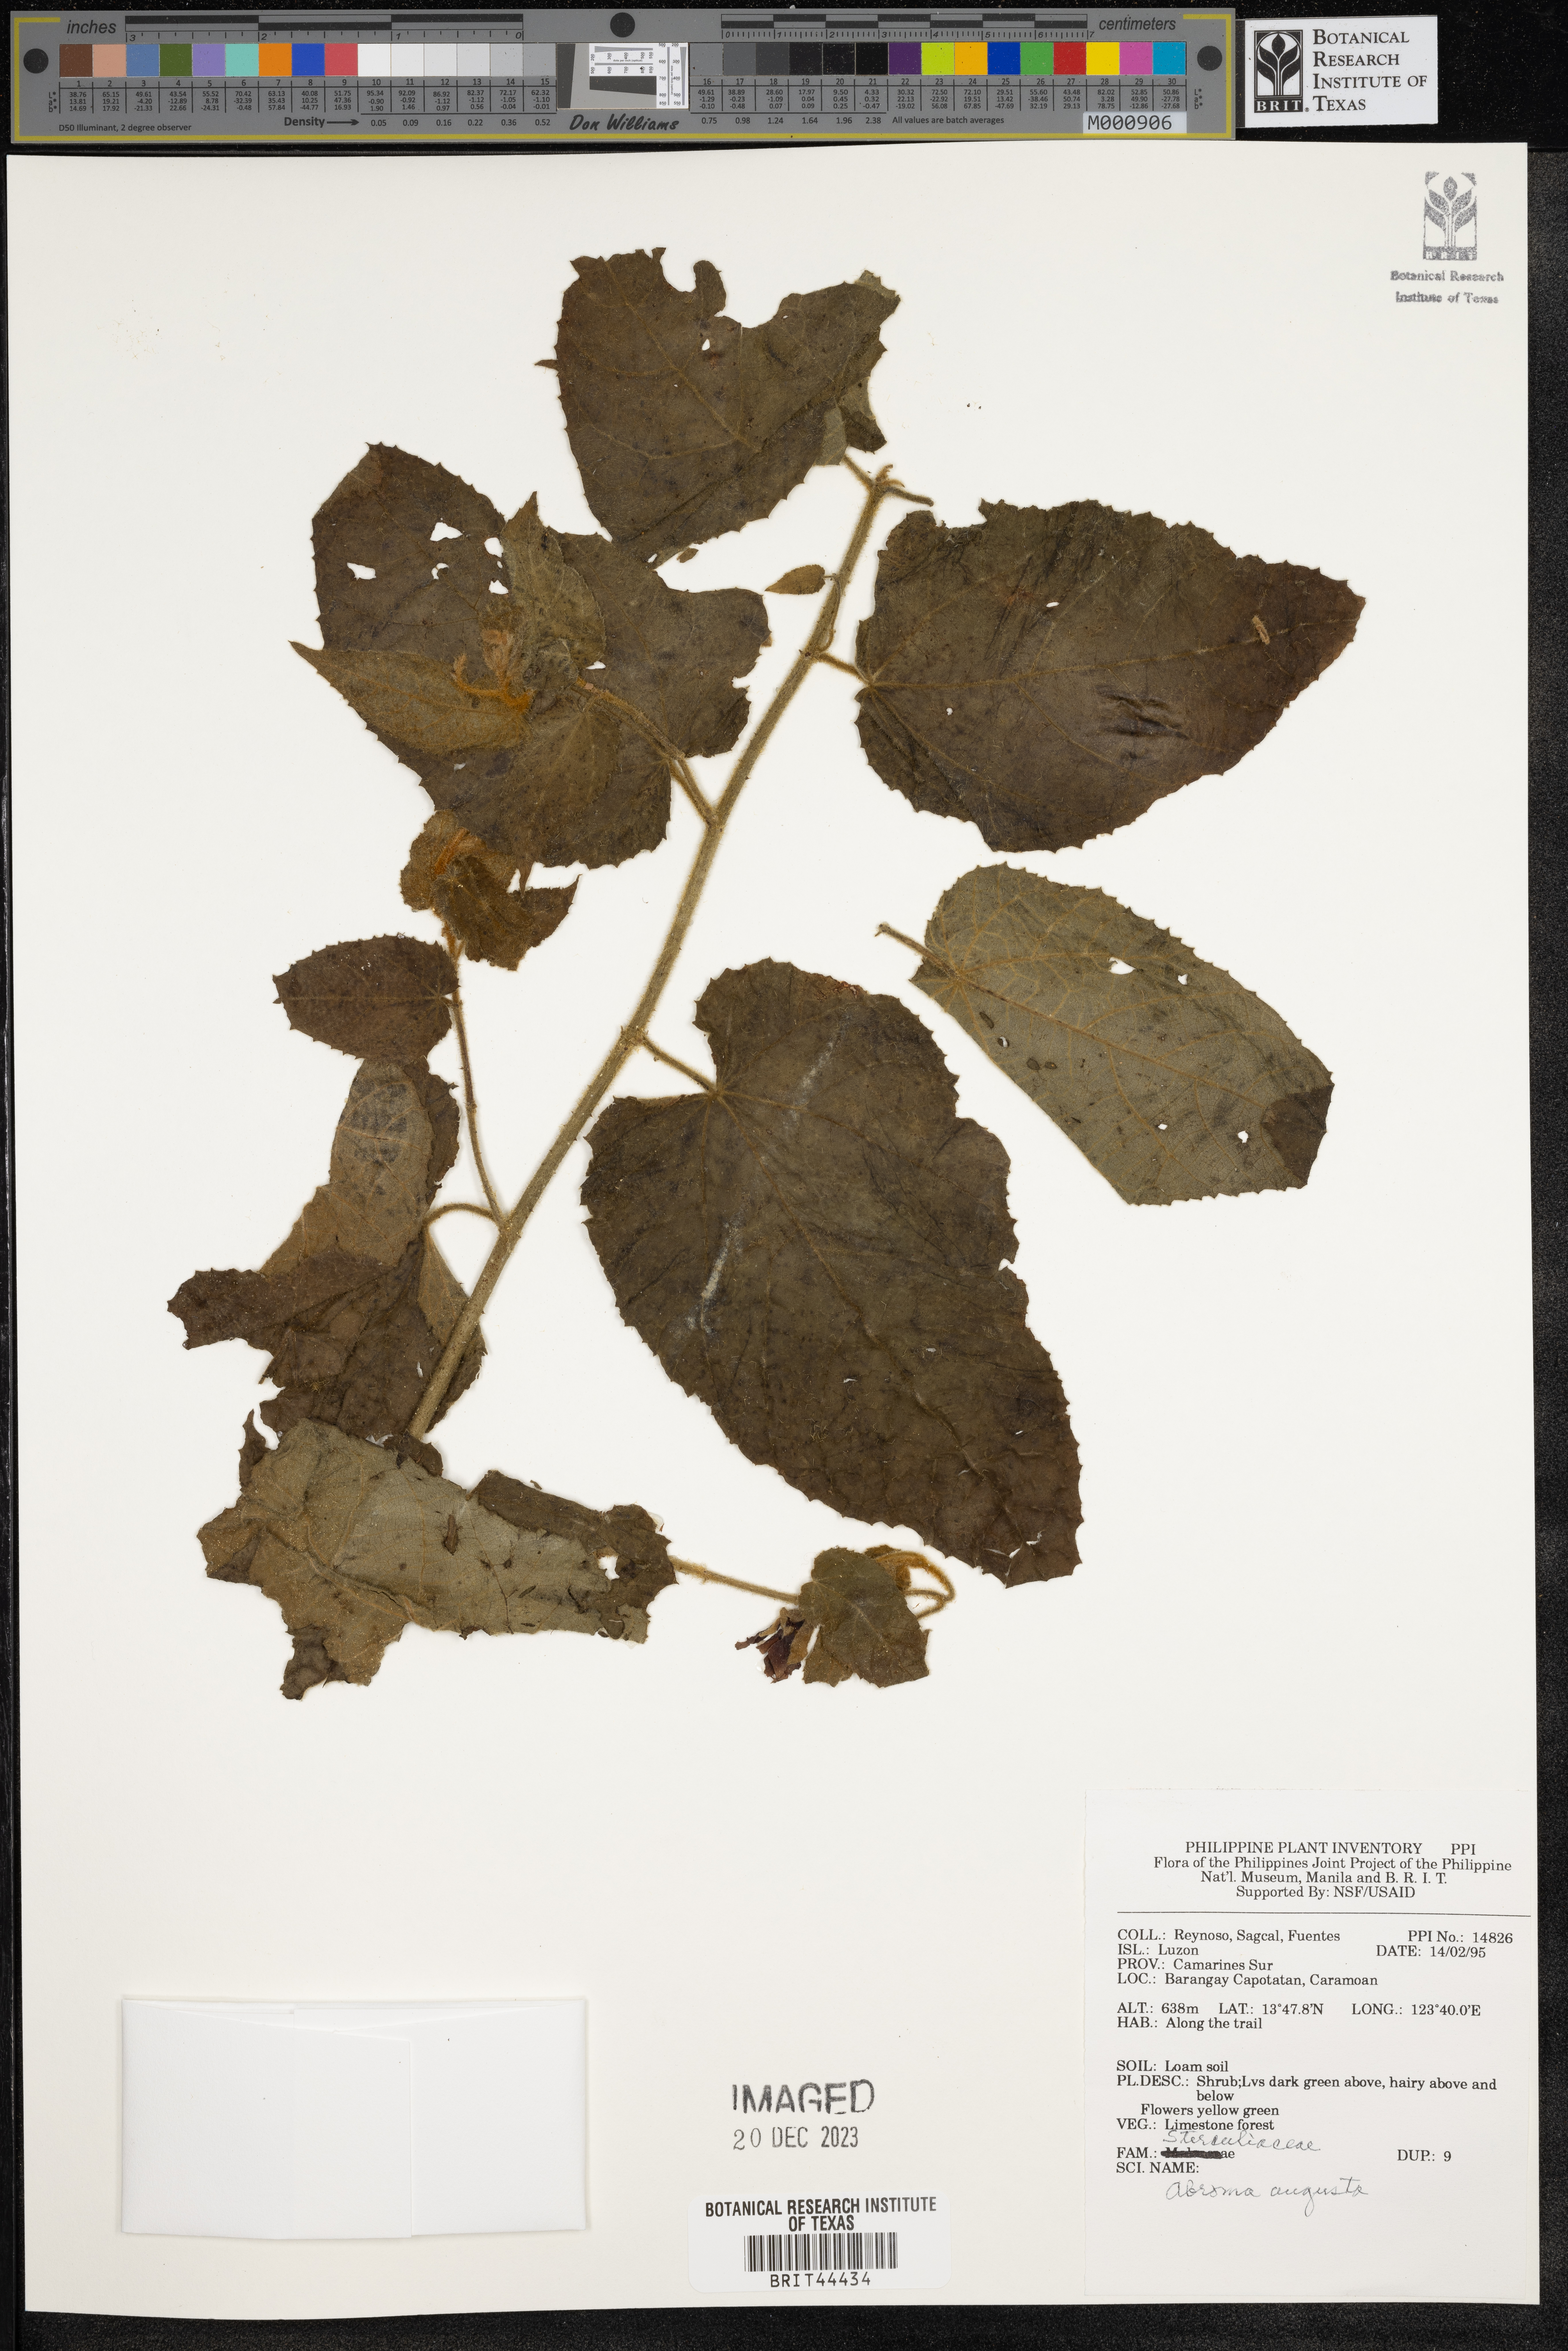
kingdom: Plantae
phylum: Tracheophyta
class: Magnoliopsida
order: Malvales
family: Malvaceae
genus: Abroma
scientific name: Abroma augustum
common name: Devil's-cotton
